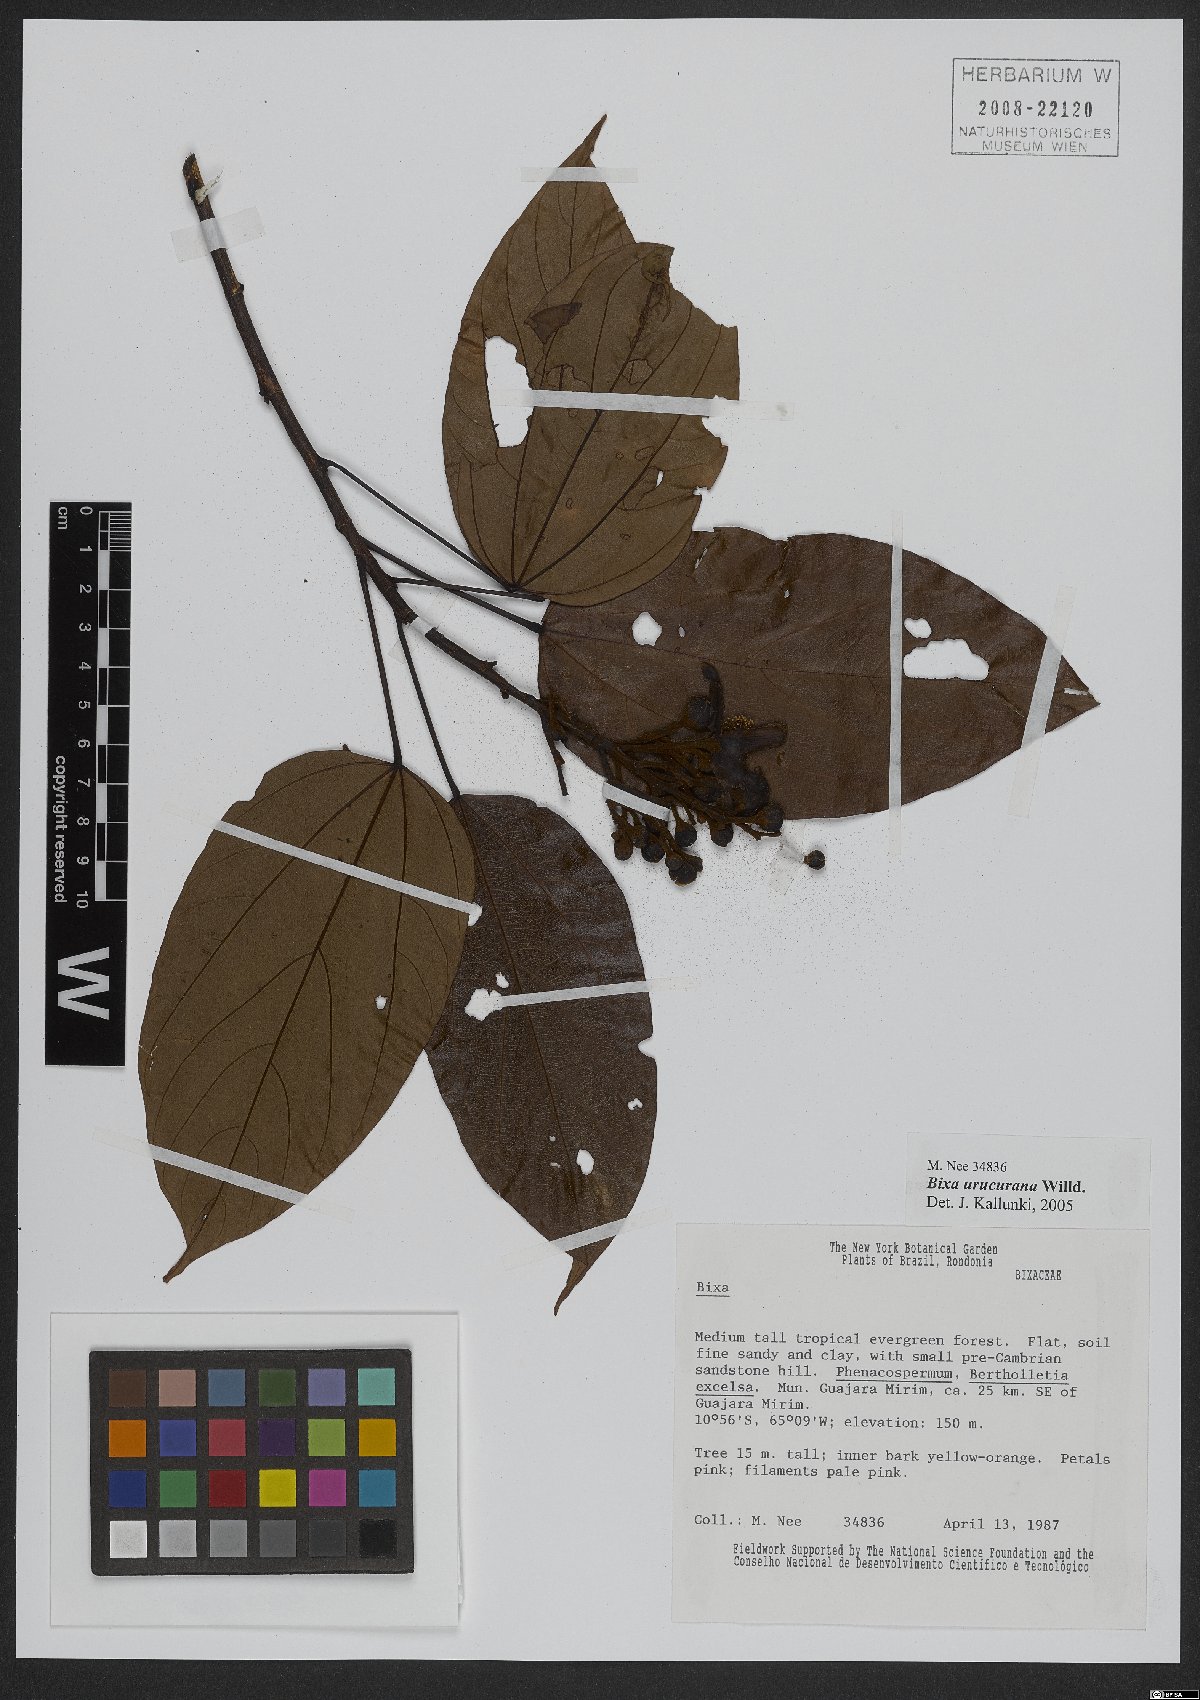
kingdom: Plantae
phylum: Tracheophyta
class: Magnoliopsida
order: Malvales
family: Bixaceae
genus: Bixa
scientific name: Bixa urucurana
